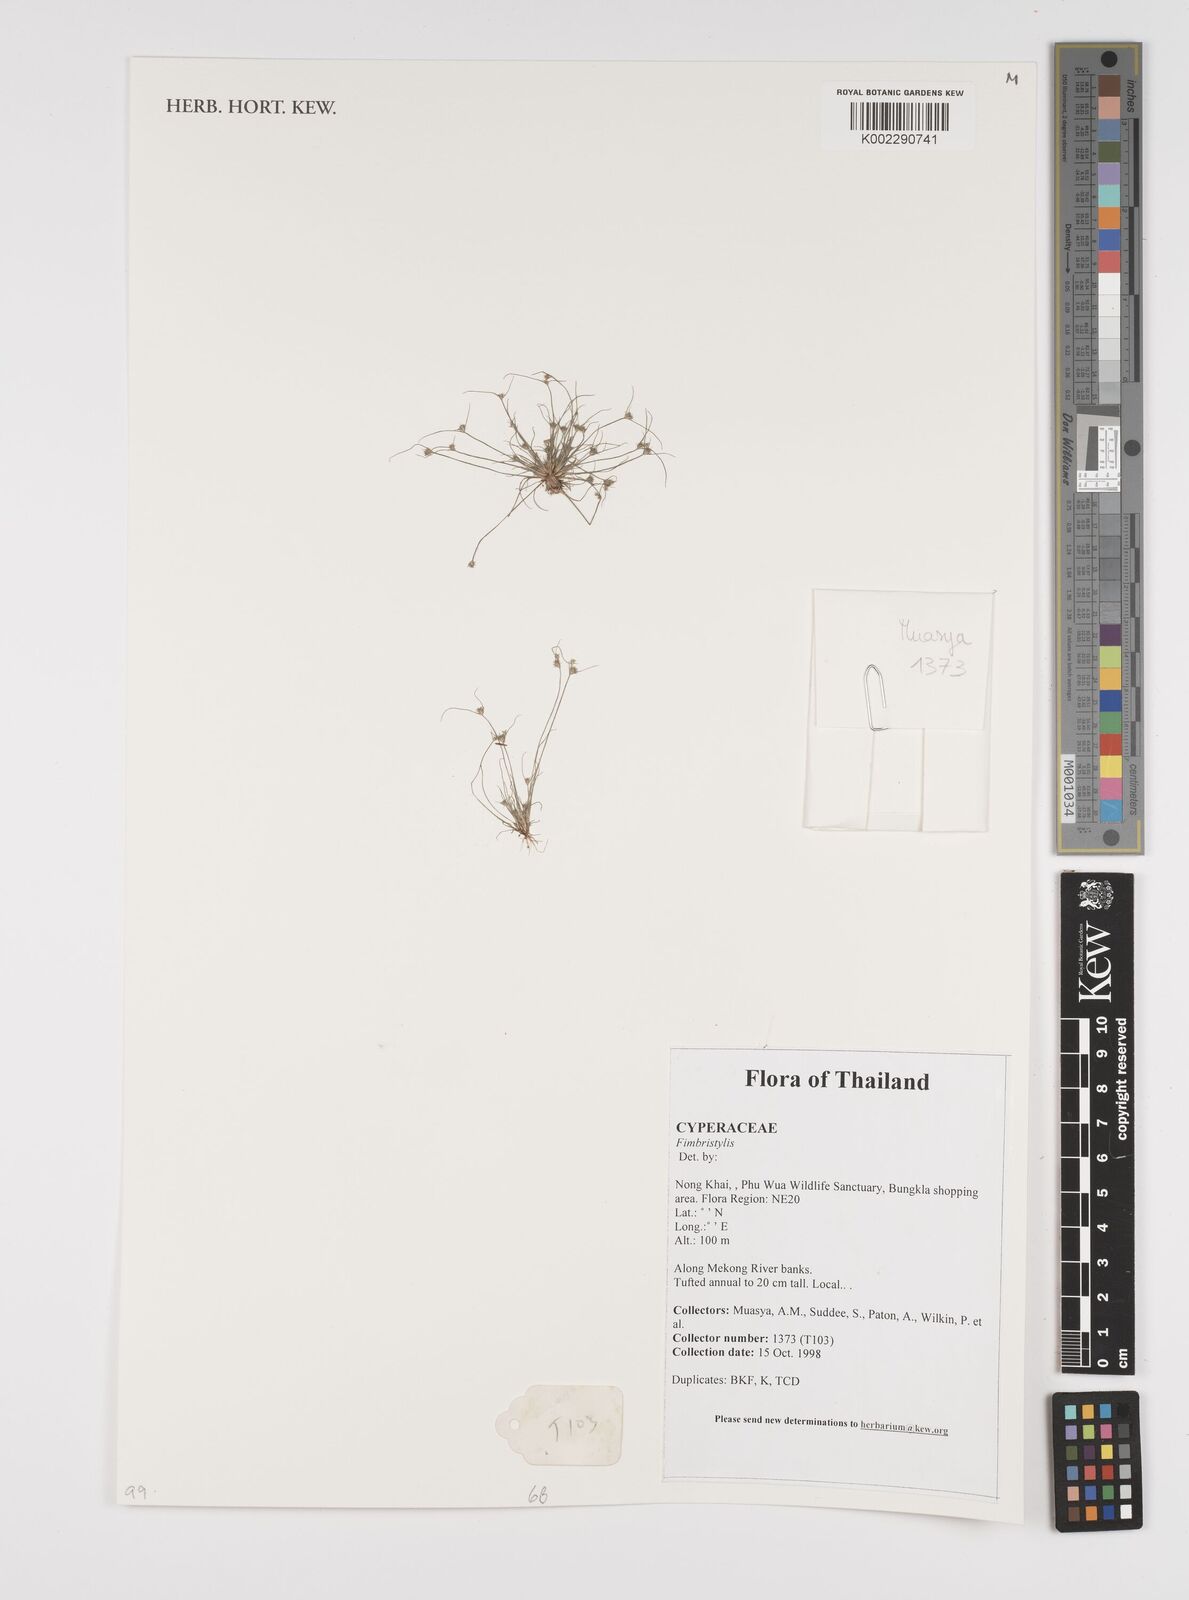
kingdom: Plantae
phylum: Tracheophyta
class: Liliopsida
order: Poales
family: Cyperaceae
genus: Fimbristylis
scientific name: Fimbristylis
